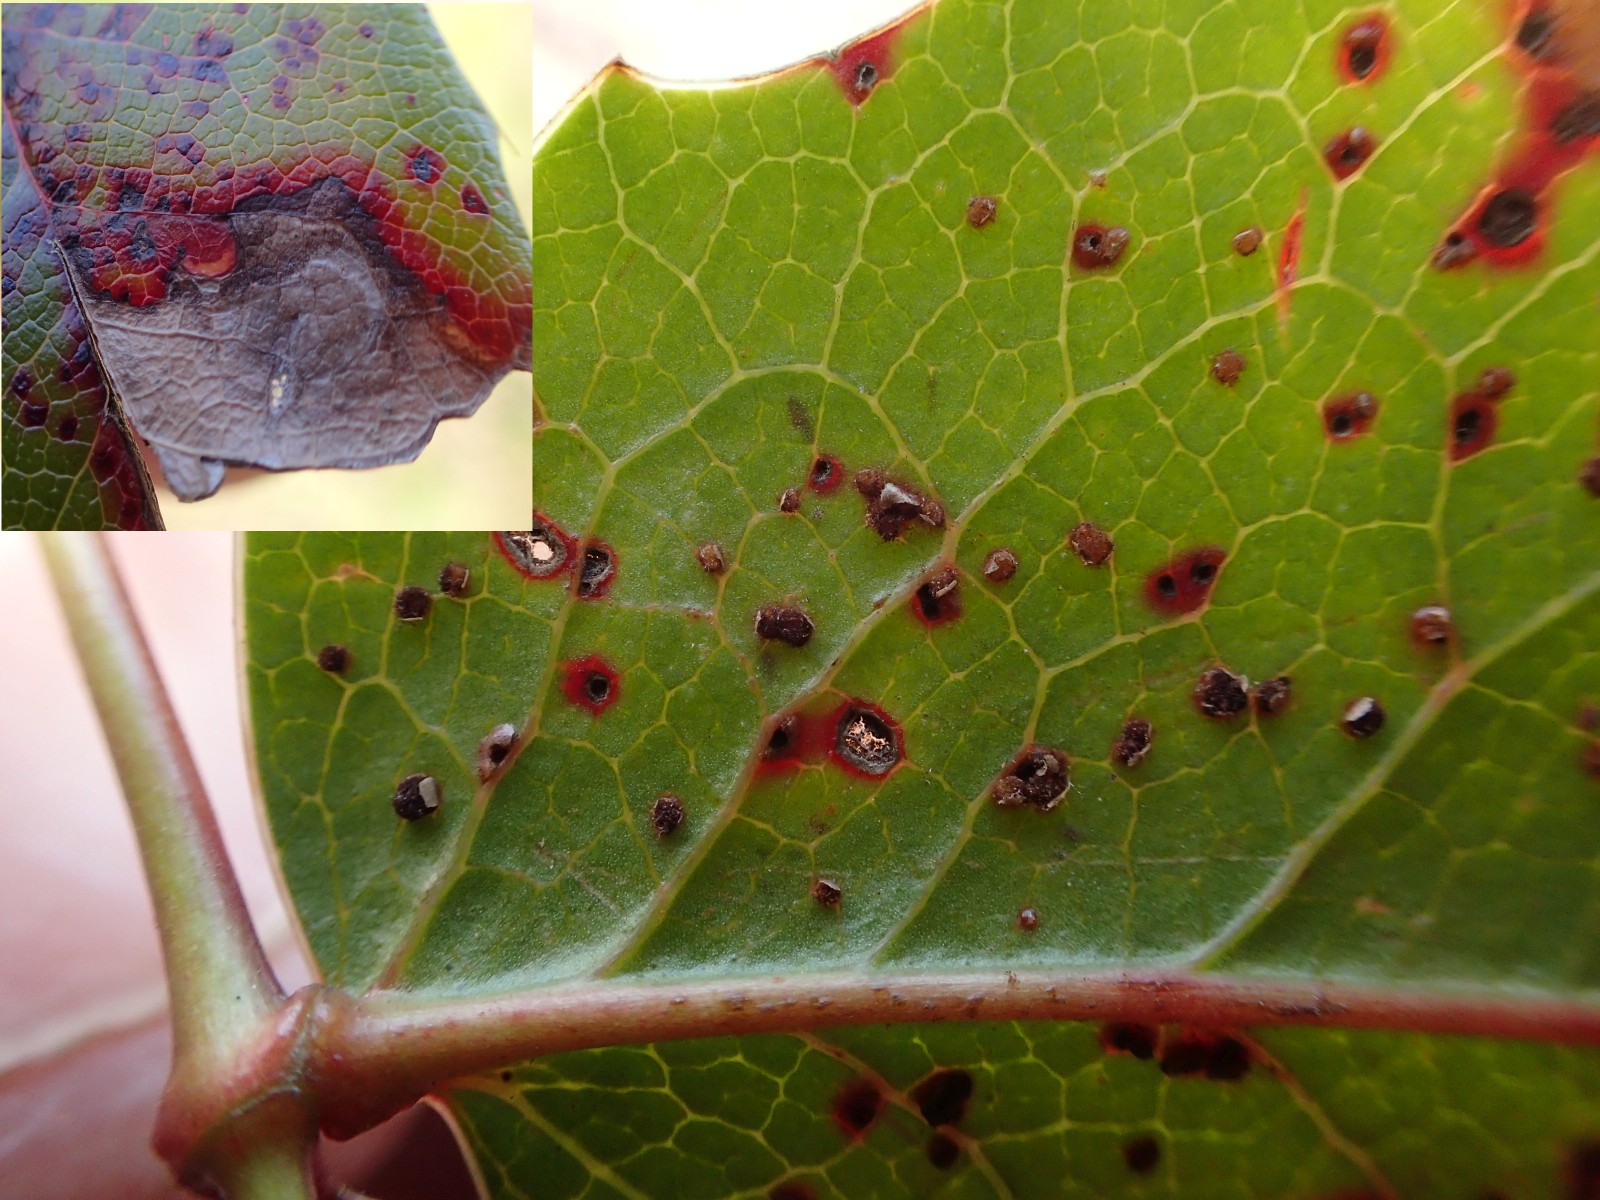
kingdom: Fungi
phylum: Basidiomycota
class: Pucciniomycetes
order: Pucciniales
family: Pucciniaceae
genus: Cumminsiella
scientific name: Cumminsiella mirabilissima
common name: mahonierust
